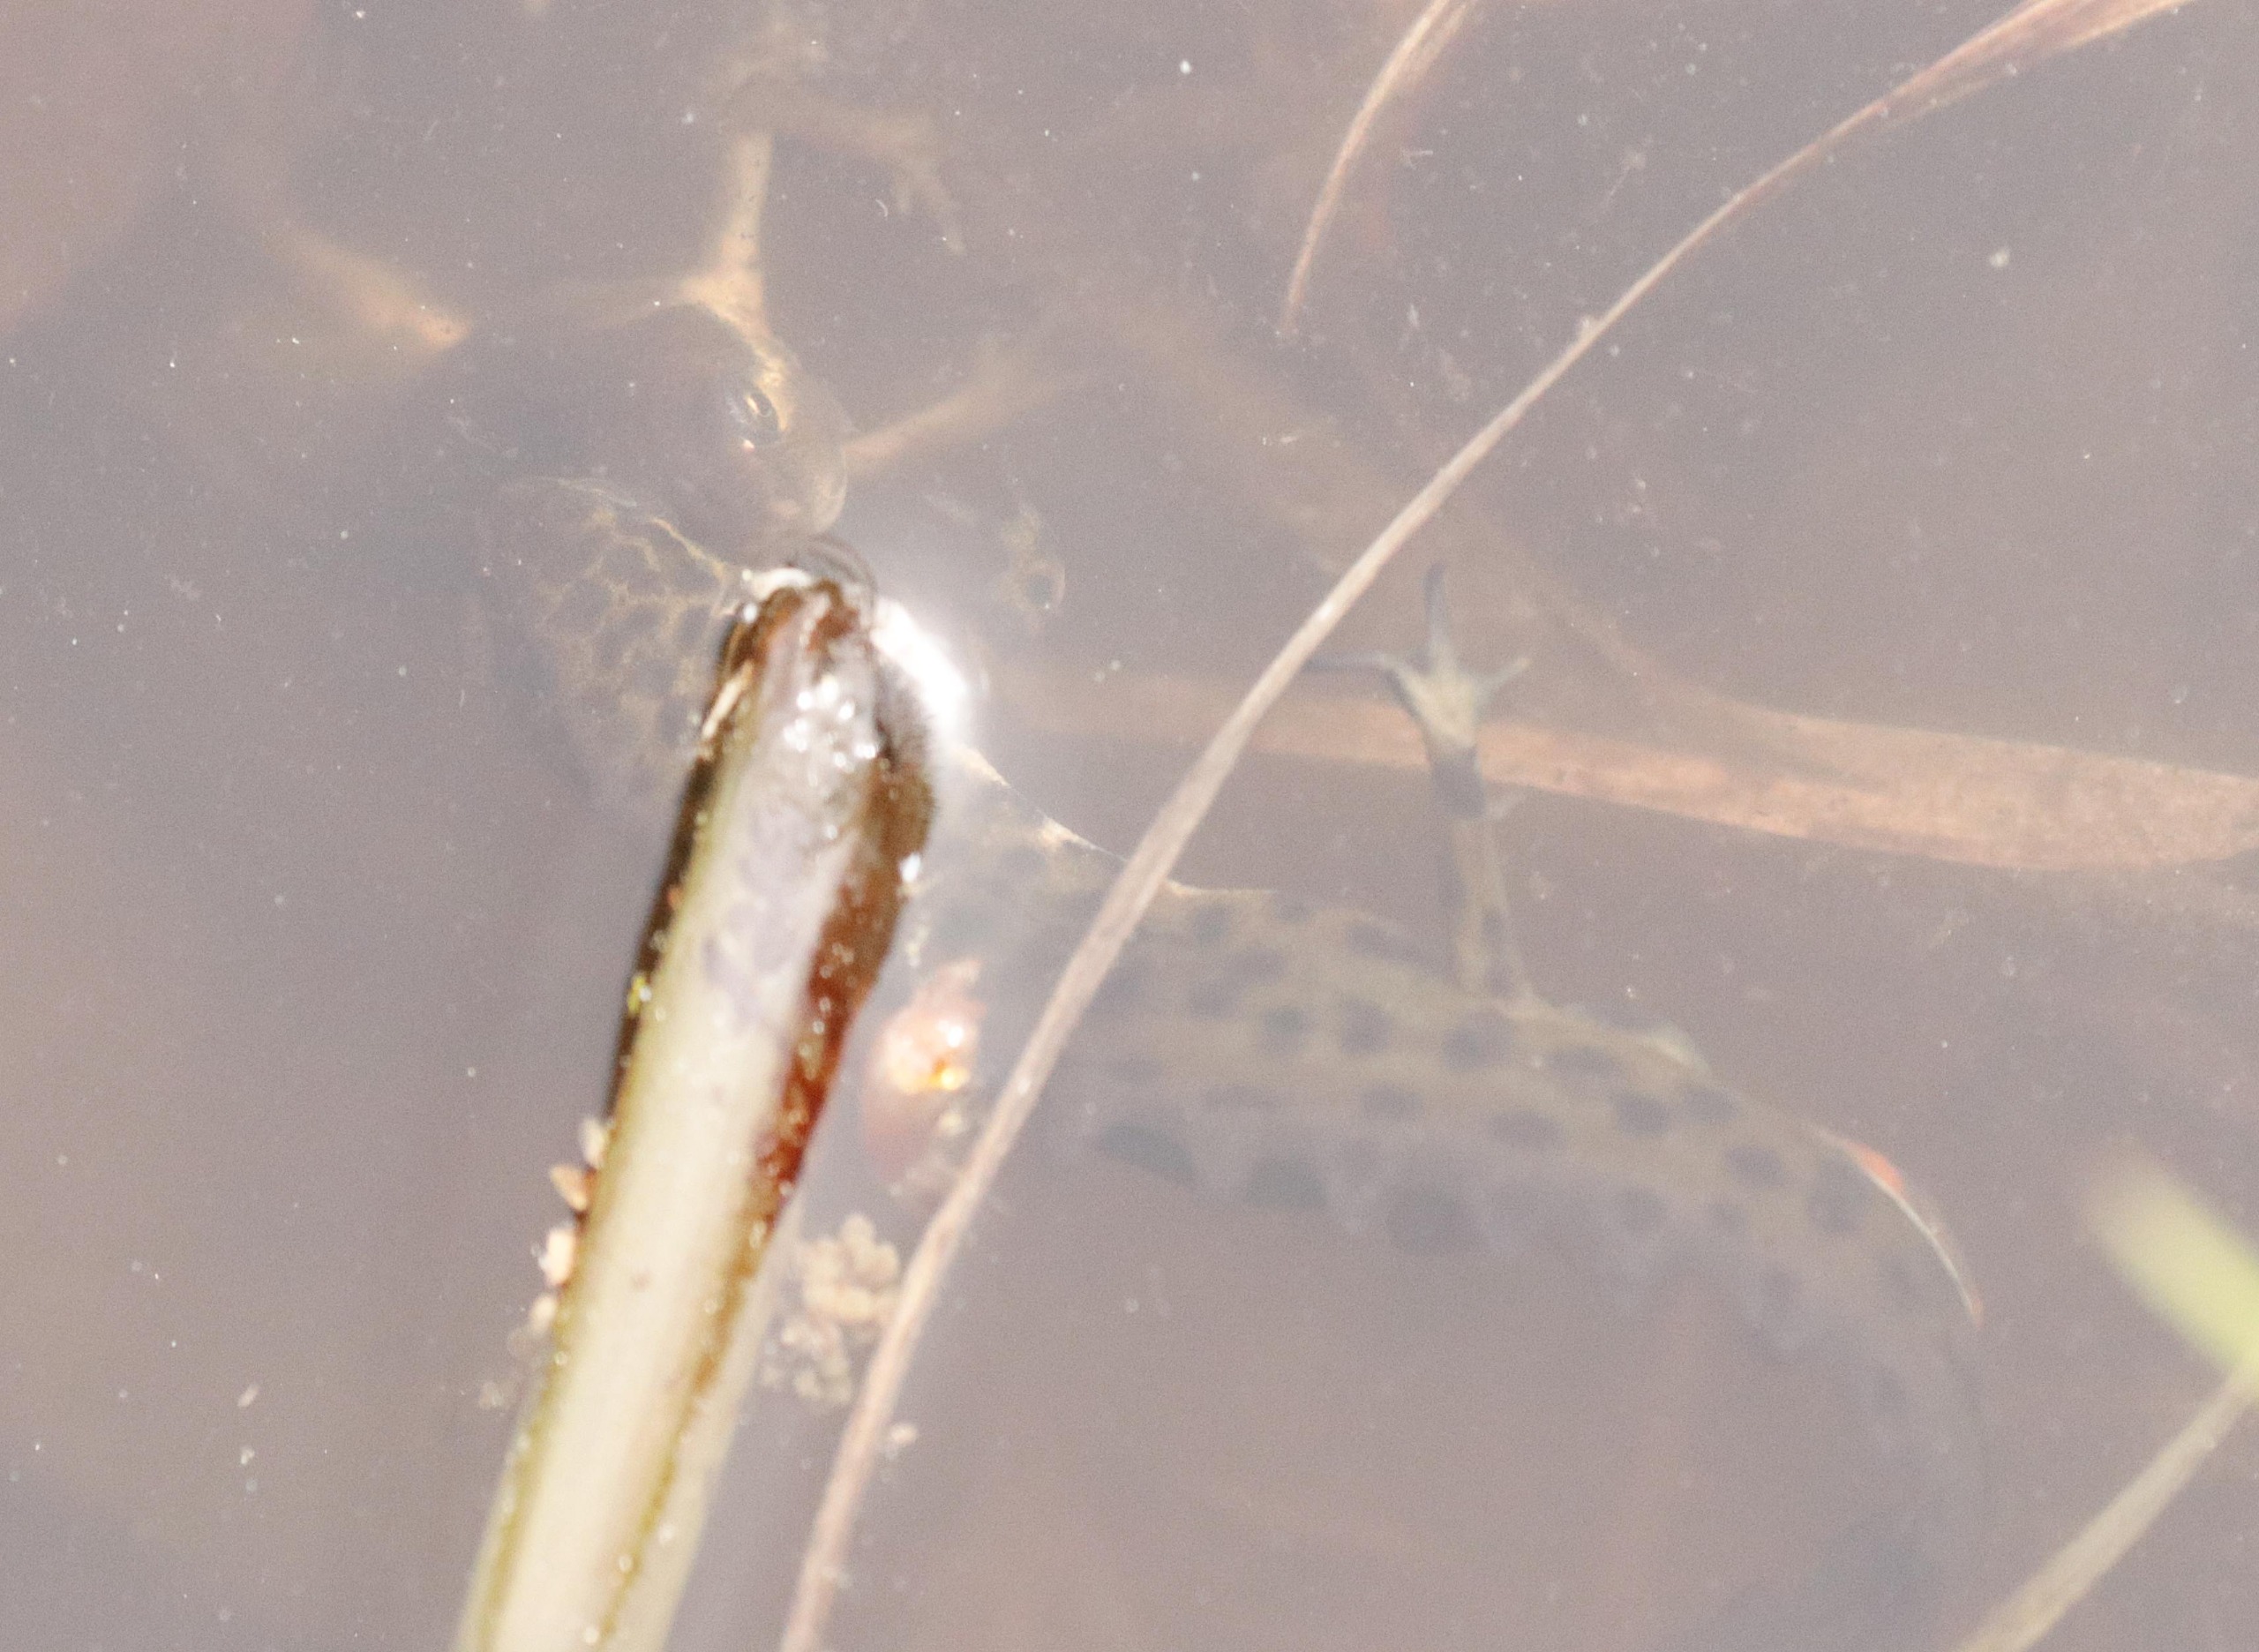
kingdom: Animalia
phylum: Chordata
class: Amphibia
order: Caudata
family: Salamandridae
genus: Lissotriton
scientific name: Lissotriton vulgaris
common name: Lille vandsalamander
